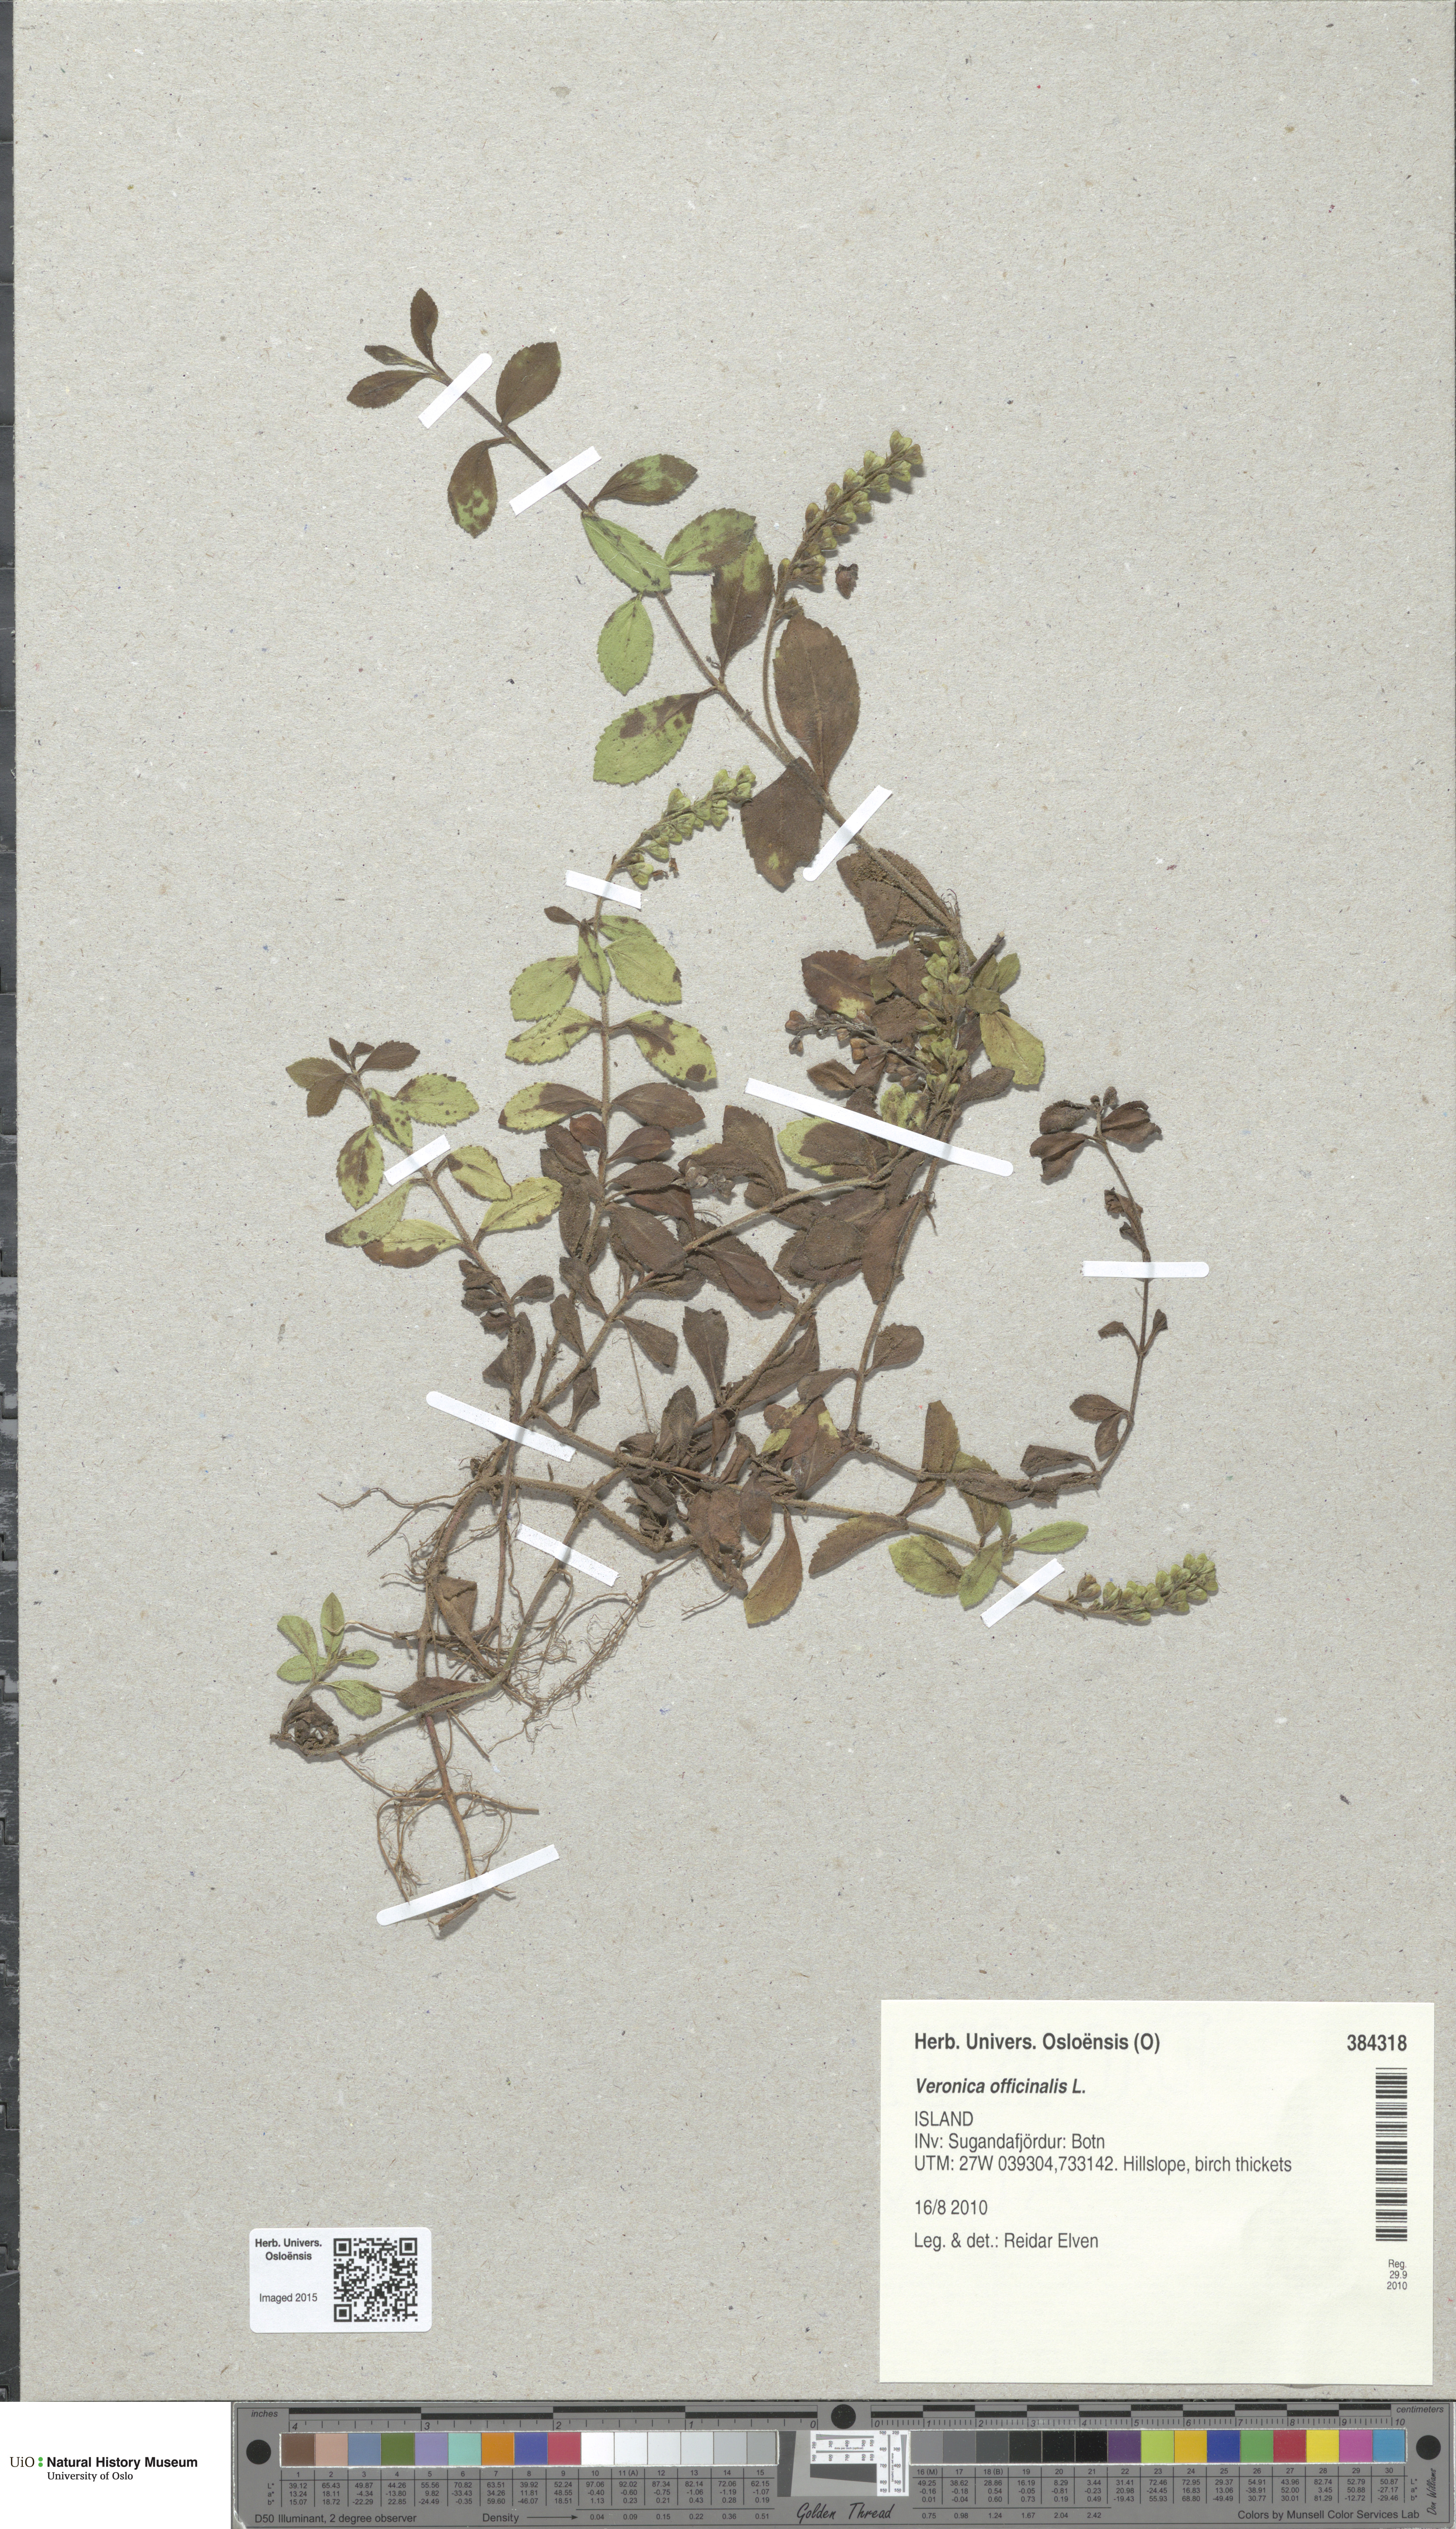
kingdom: Plantae
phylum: Tracheophyta
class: Magnoliopsida
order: Lamiales
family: Plantaginaceae
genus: Veronica
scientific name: Veronica officinalis
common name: Common speedwell
